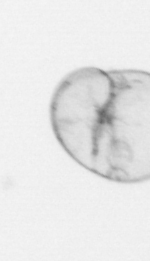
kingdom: Chromista
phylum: Myzozoa
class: Dinophyceae
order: Noctilucales
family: Noctilucaceae
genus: Noctiluca
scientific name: Noctiluca scintillans
